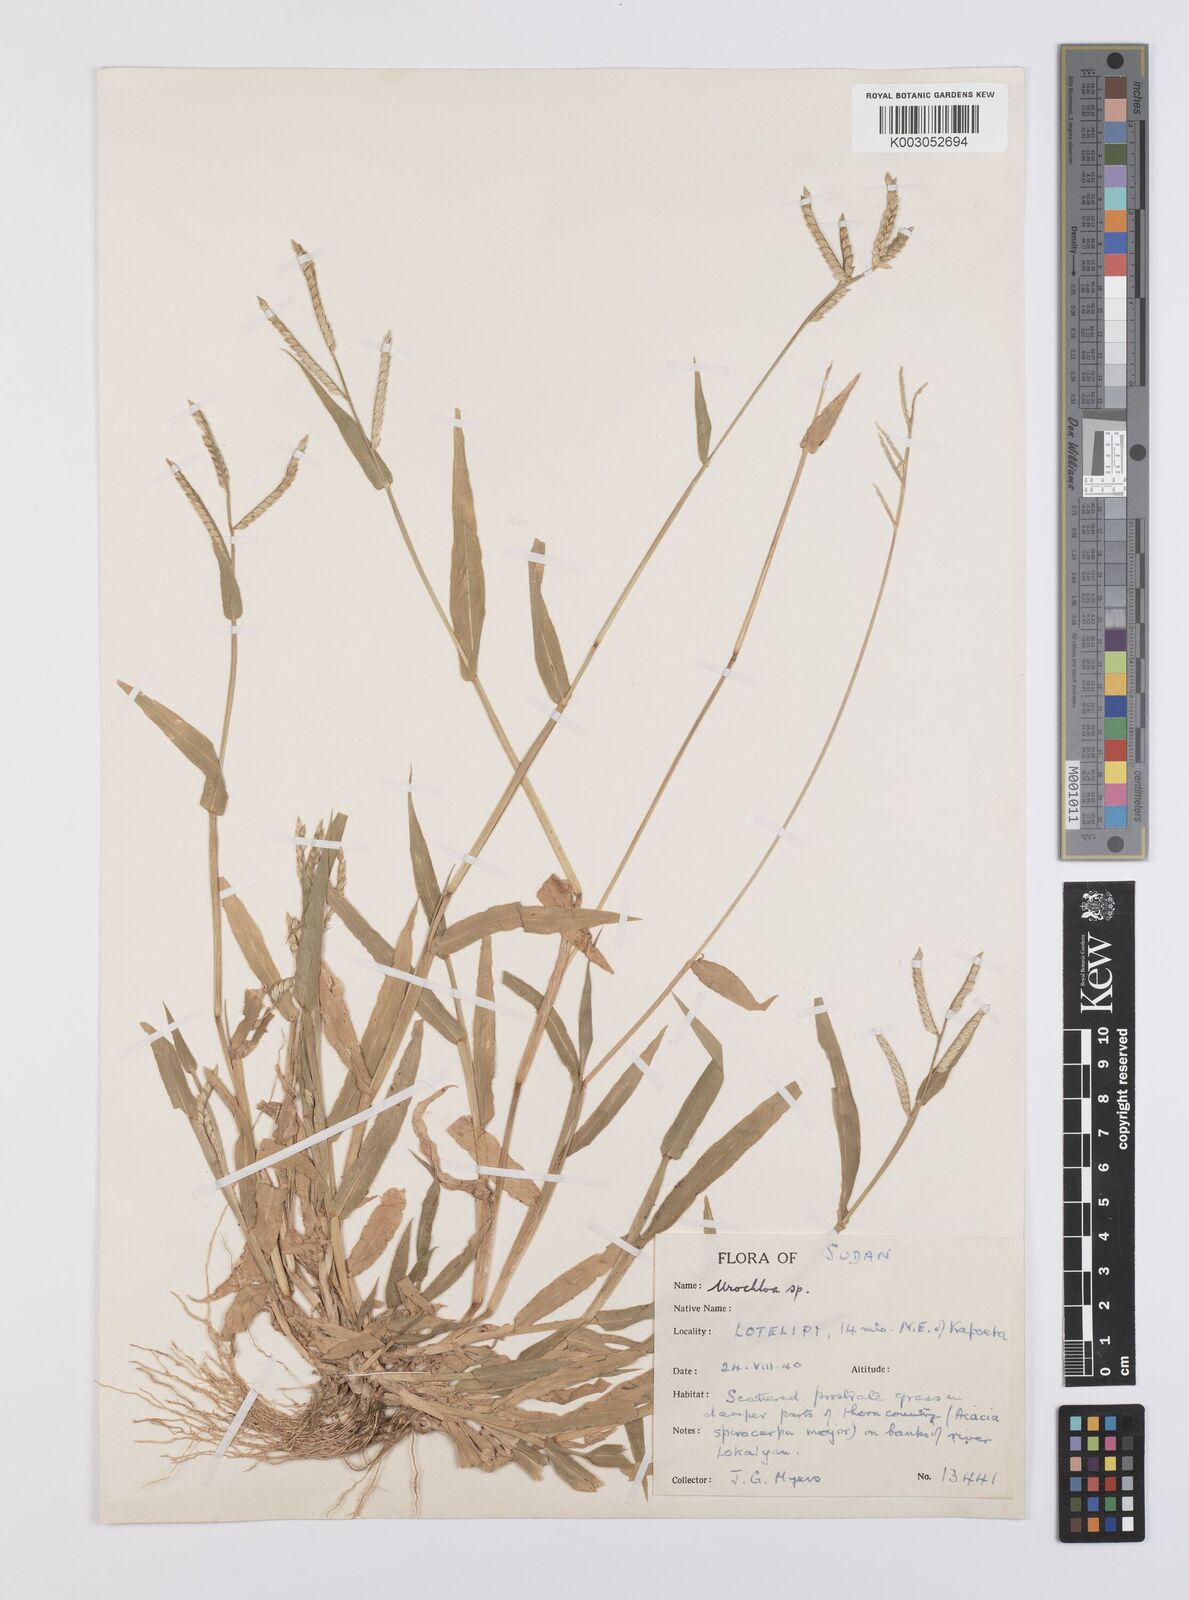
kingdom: Plantae
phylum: Tracheophyta
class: Liliopsida
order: Poales
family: Poaceae
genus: Urochloa
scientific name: Urochloa panicoides
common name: Sharp-flowered signal-grass
